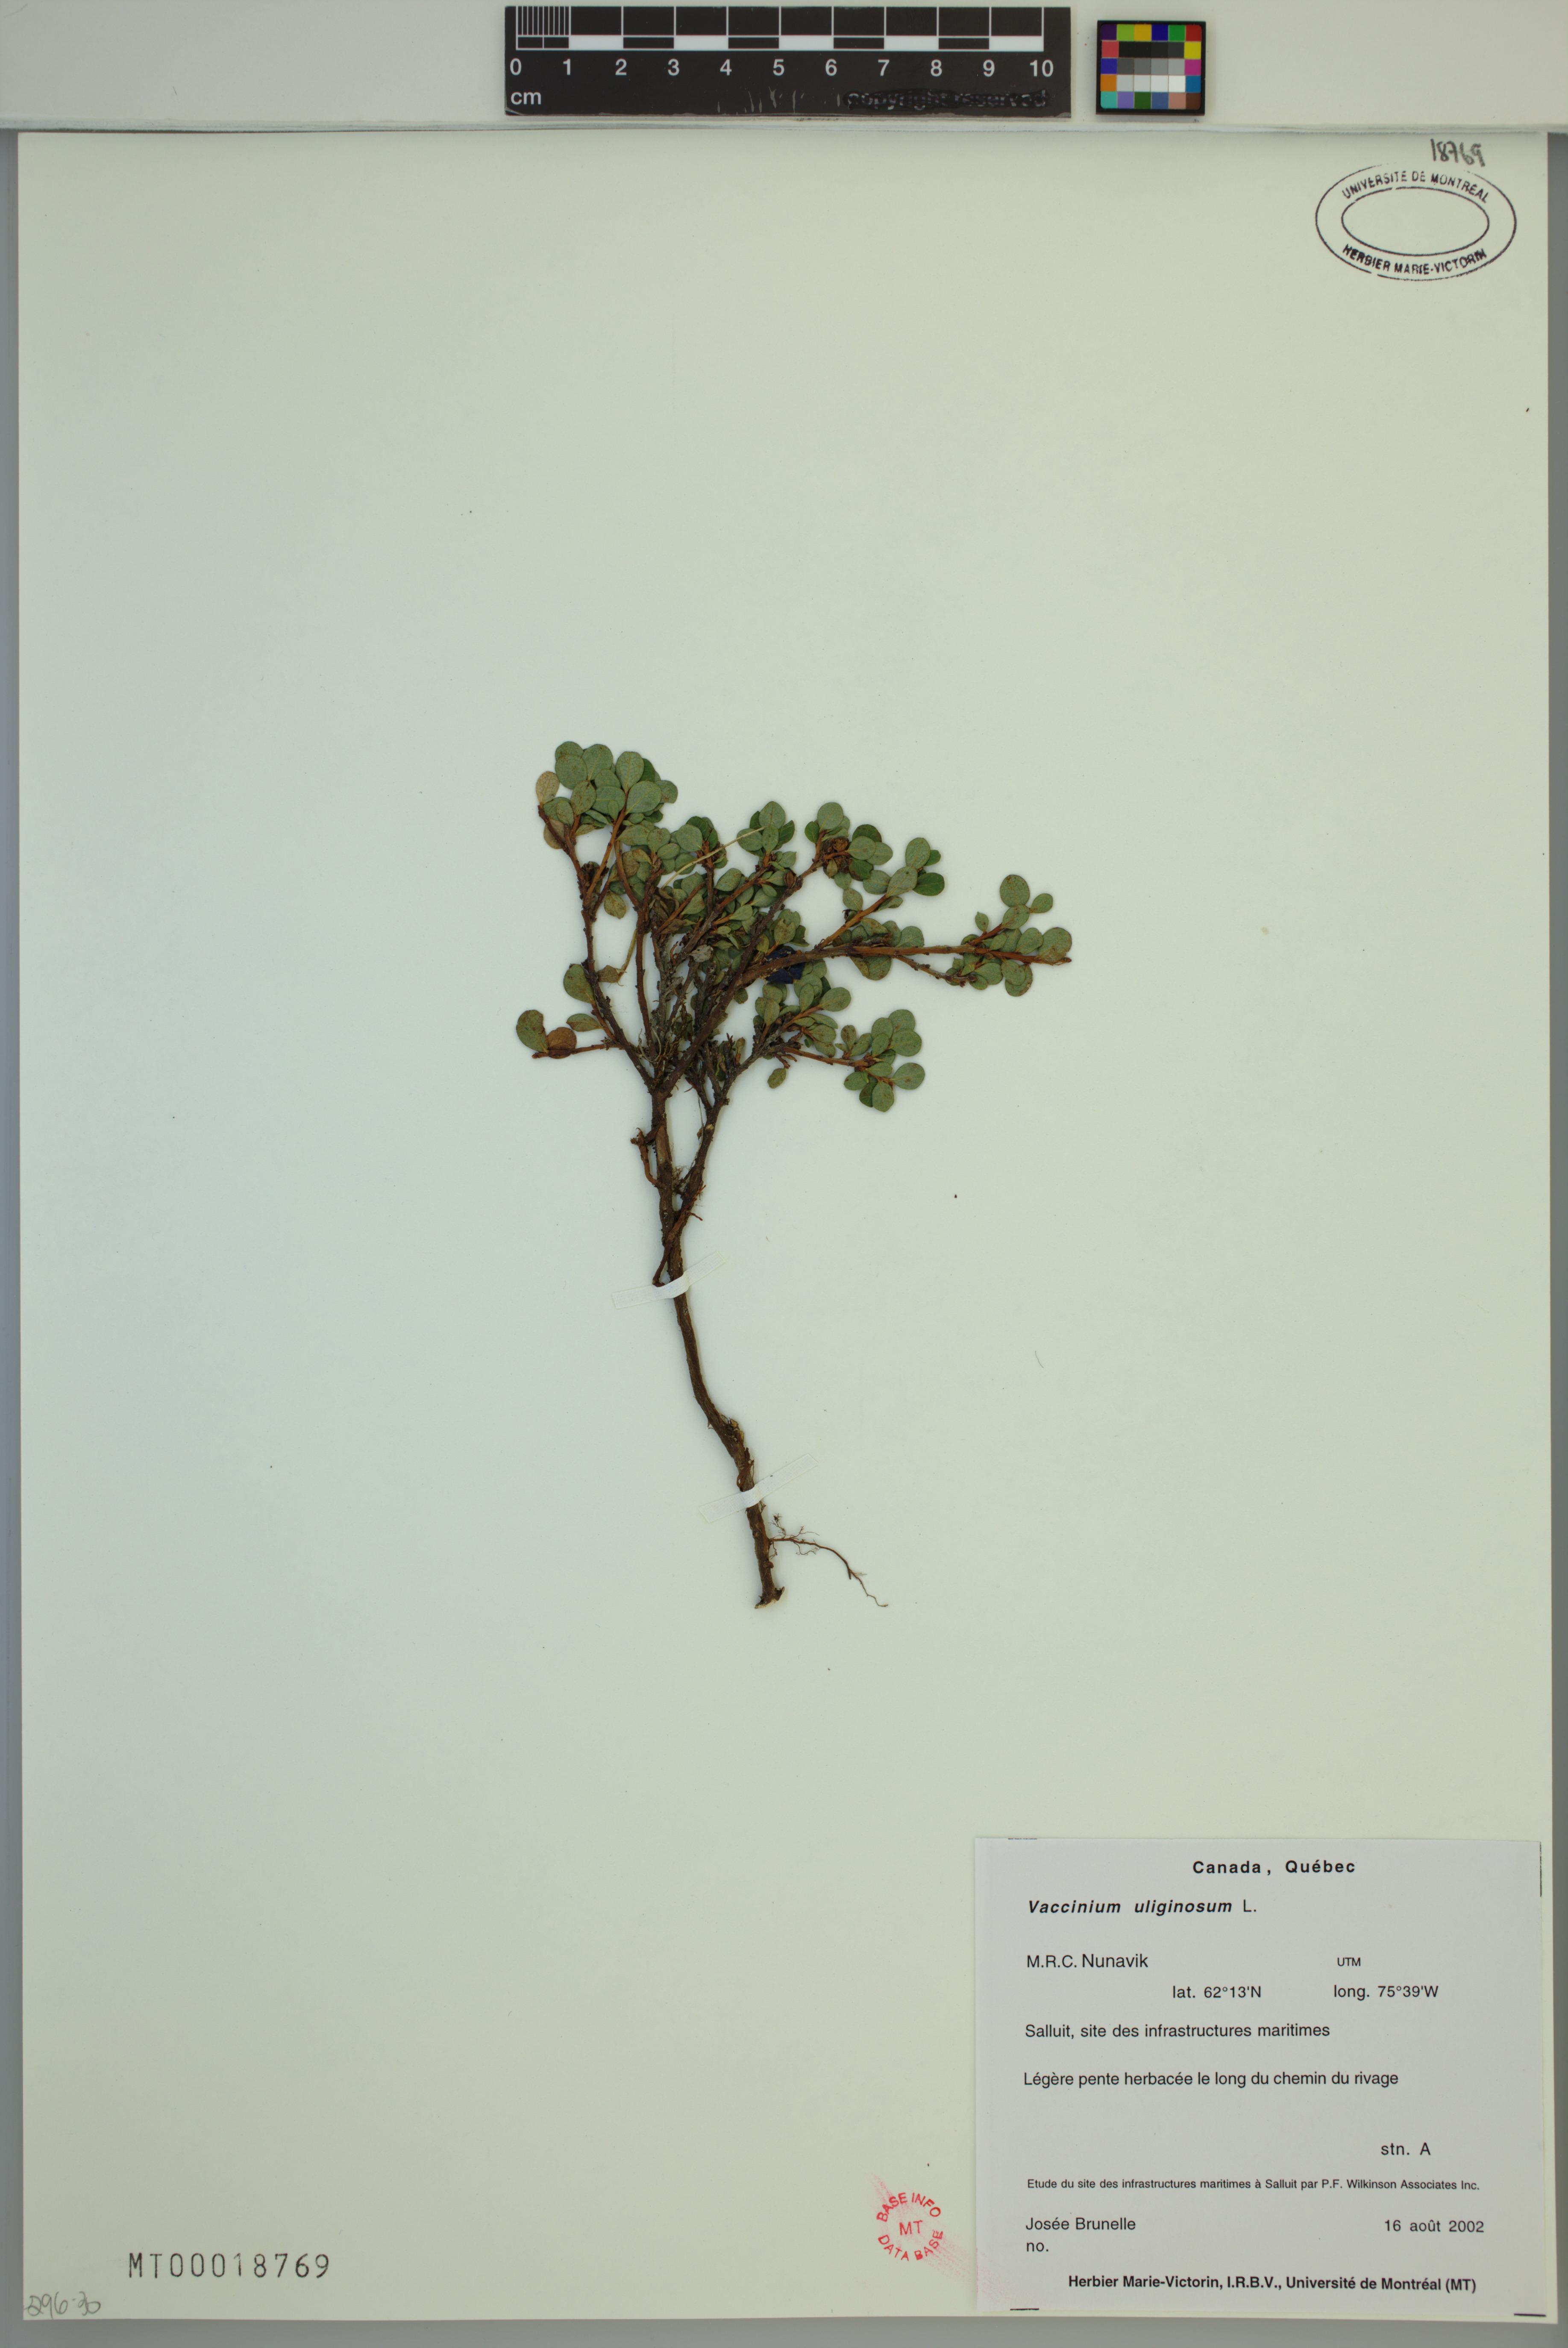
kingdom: Plantae
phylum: Tracheophyta
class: Magnoliopsida
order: Ericales
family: Ericaceae
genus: Vaccinium
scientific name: Vaccinium uliginosum
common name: Bog bilberry
